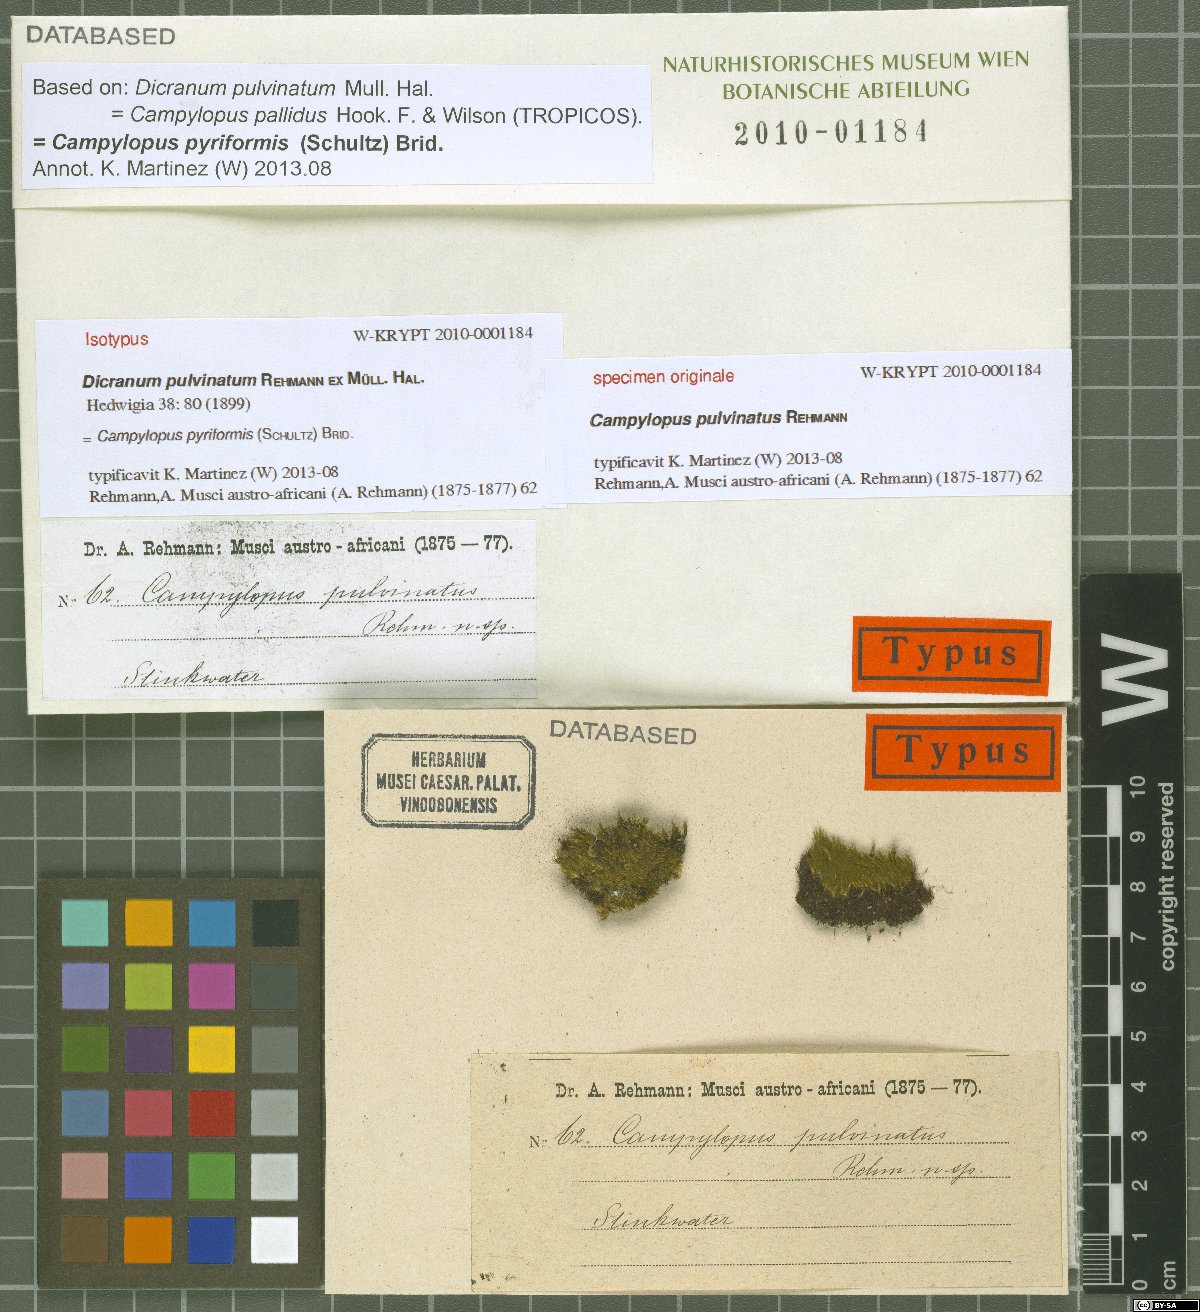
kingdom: Plantae
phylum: Bryophyta
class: Bryopsida
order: Dicranales
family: Dicranaceae
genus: Holomitrium
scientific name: Holomitrium trichopodum
